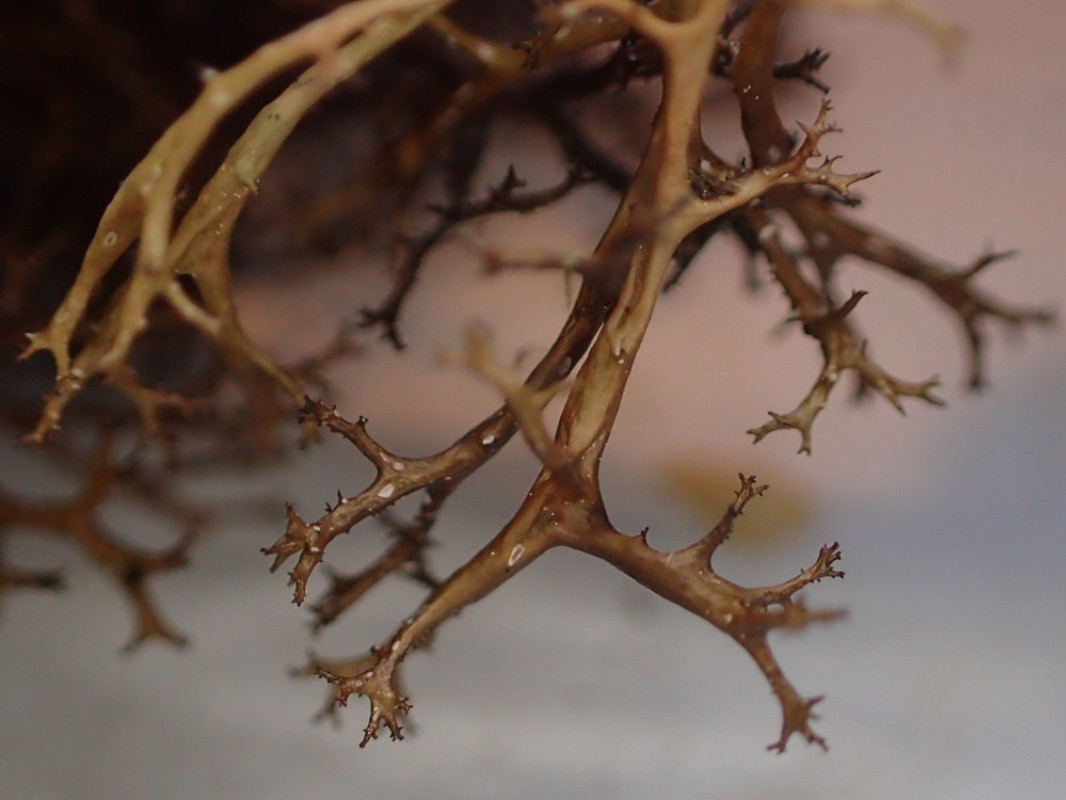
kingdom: Fungi
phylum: Ascomycota
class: Lecanoromycetes
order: Lecanorales
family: Parmeliaceae
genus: Cetraria
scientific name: Cetraria aculeata
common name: grubet tjørnelav
